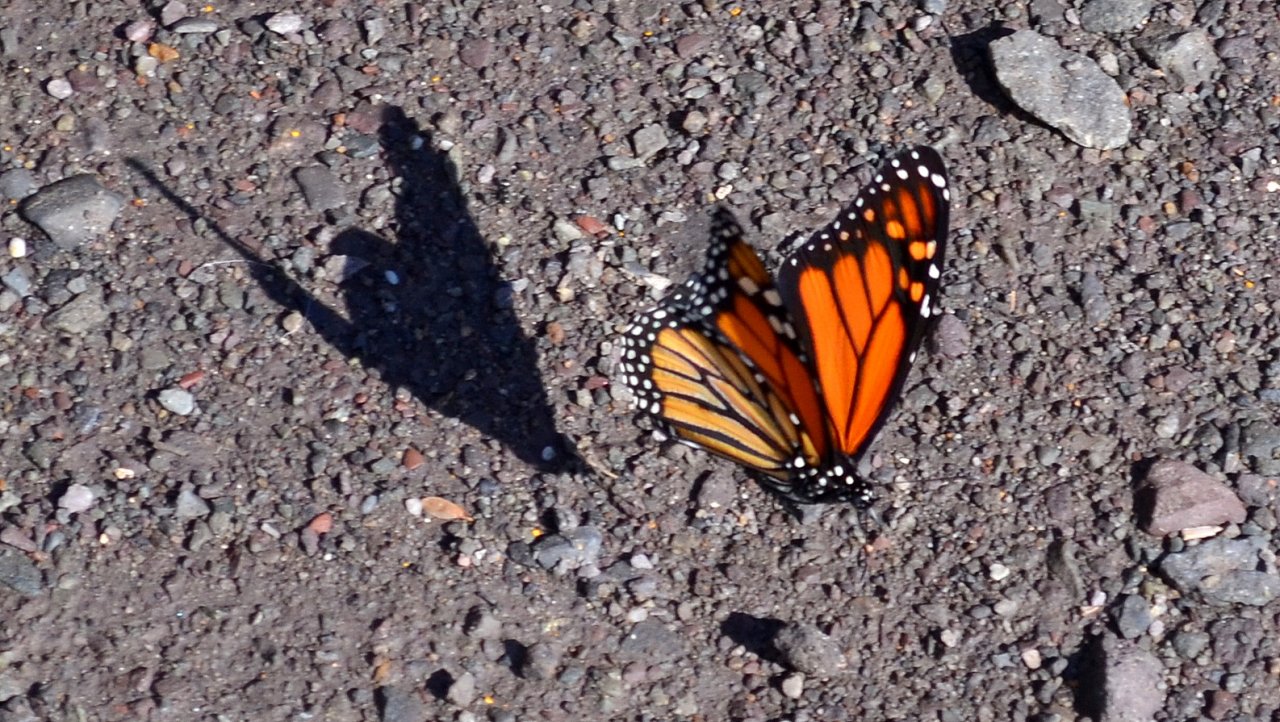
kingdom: Animalia
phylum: Arthropoda
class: Insecta
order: Lepidoptera
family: Nymphalidae
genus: Danaus
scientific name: Danaus plexippus
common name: Monarch
